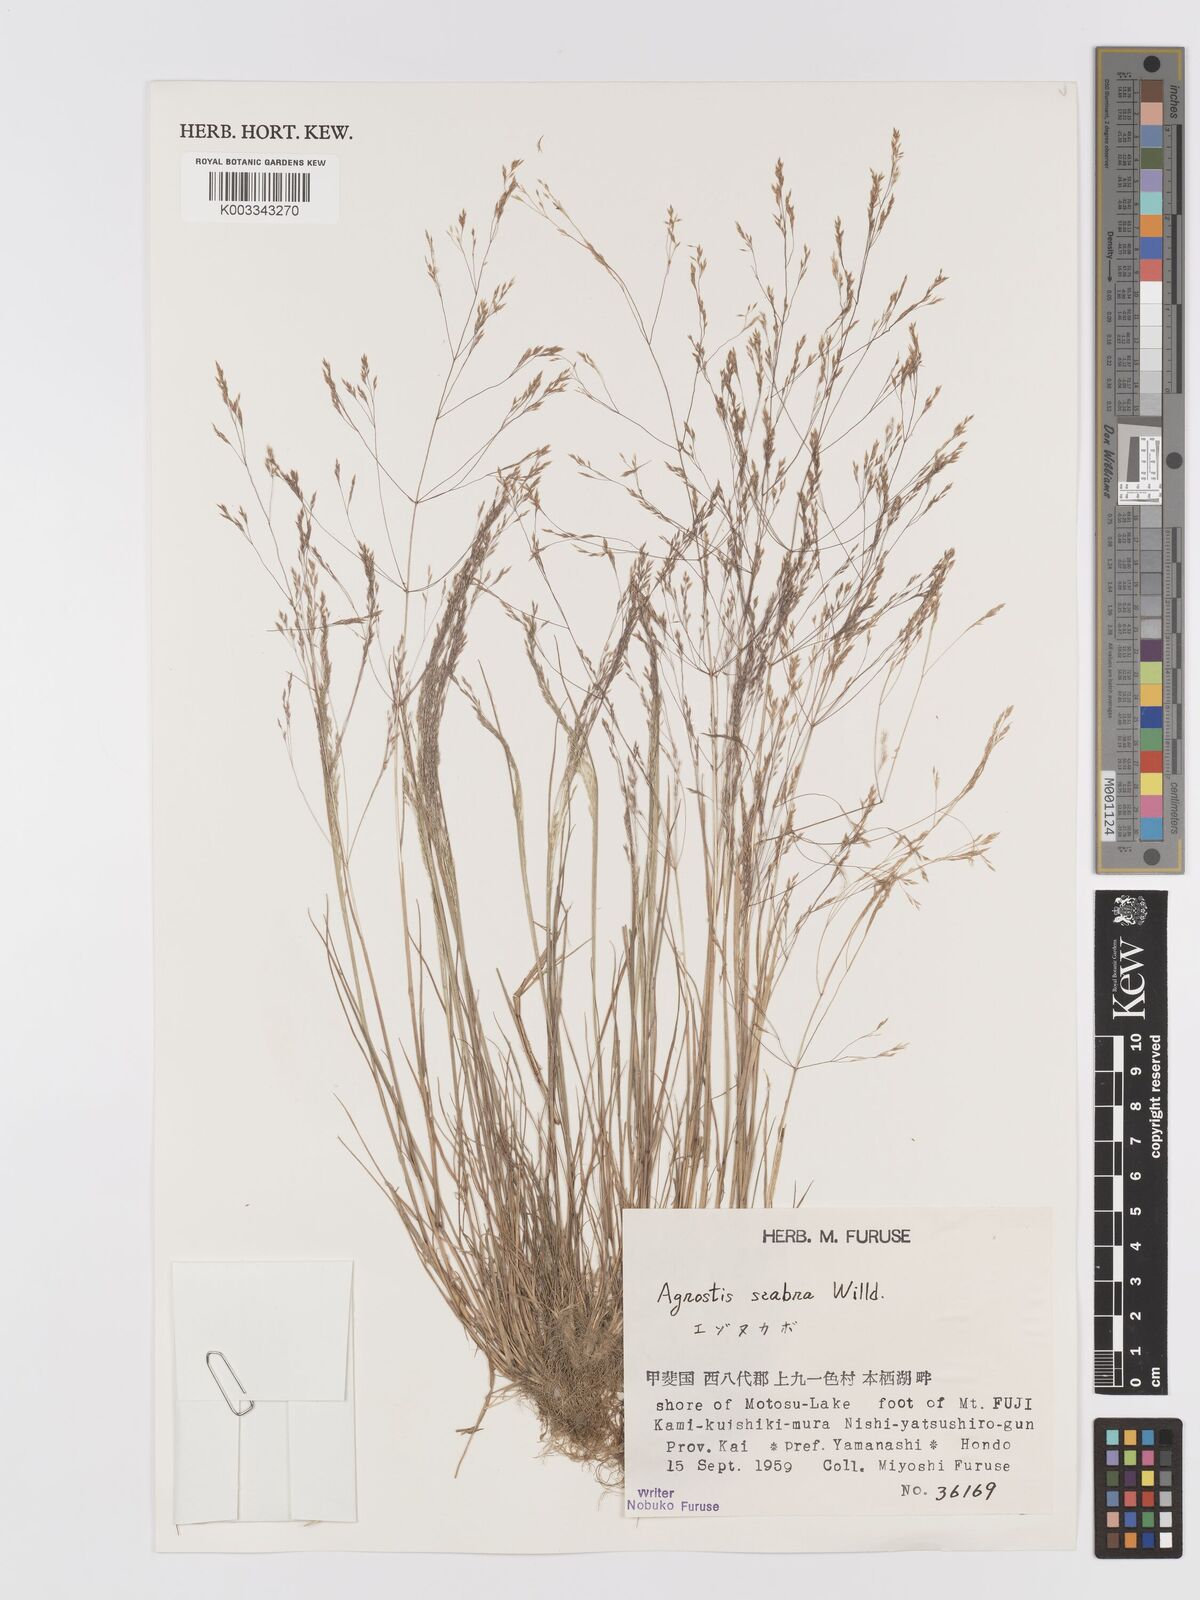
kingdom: Plantae
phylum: Tracheophyta
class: Liliopsida
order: Poales
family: Poaceae
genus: Agrostis
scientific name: Agrostis scabra
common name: Rough bent
